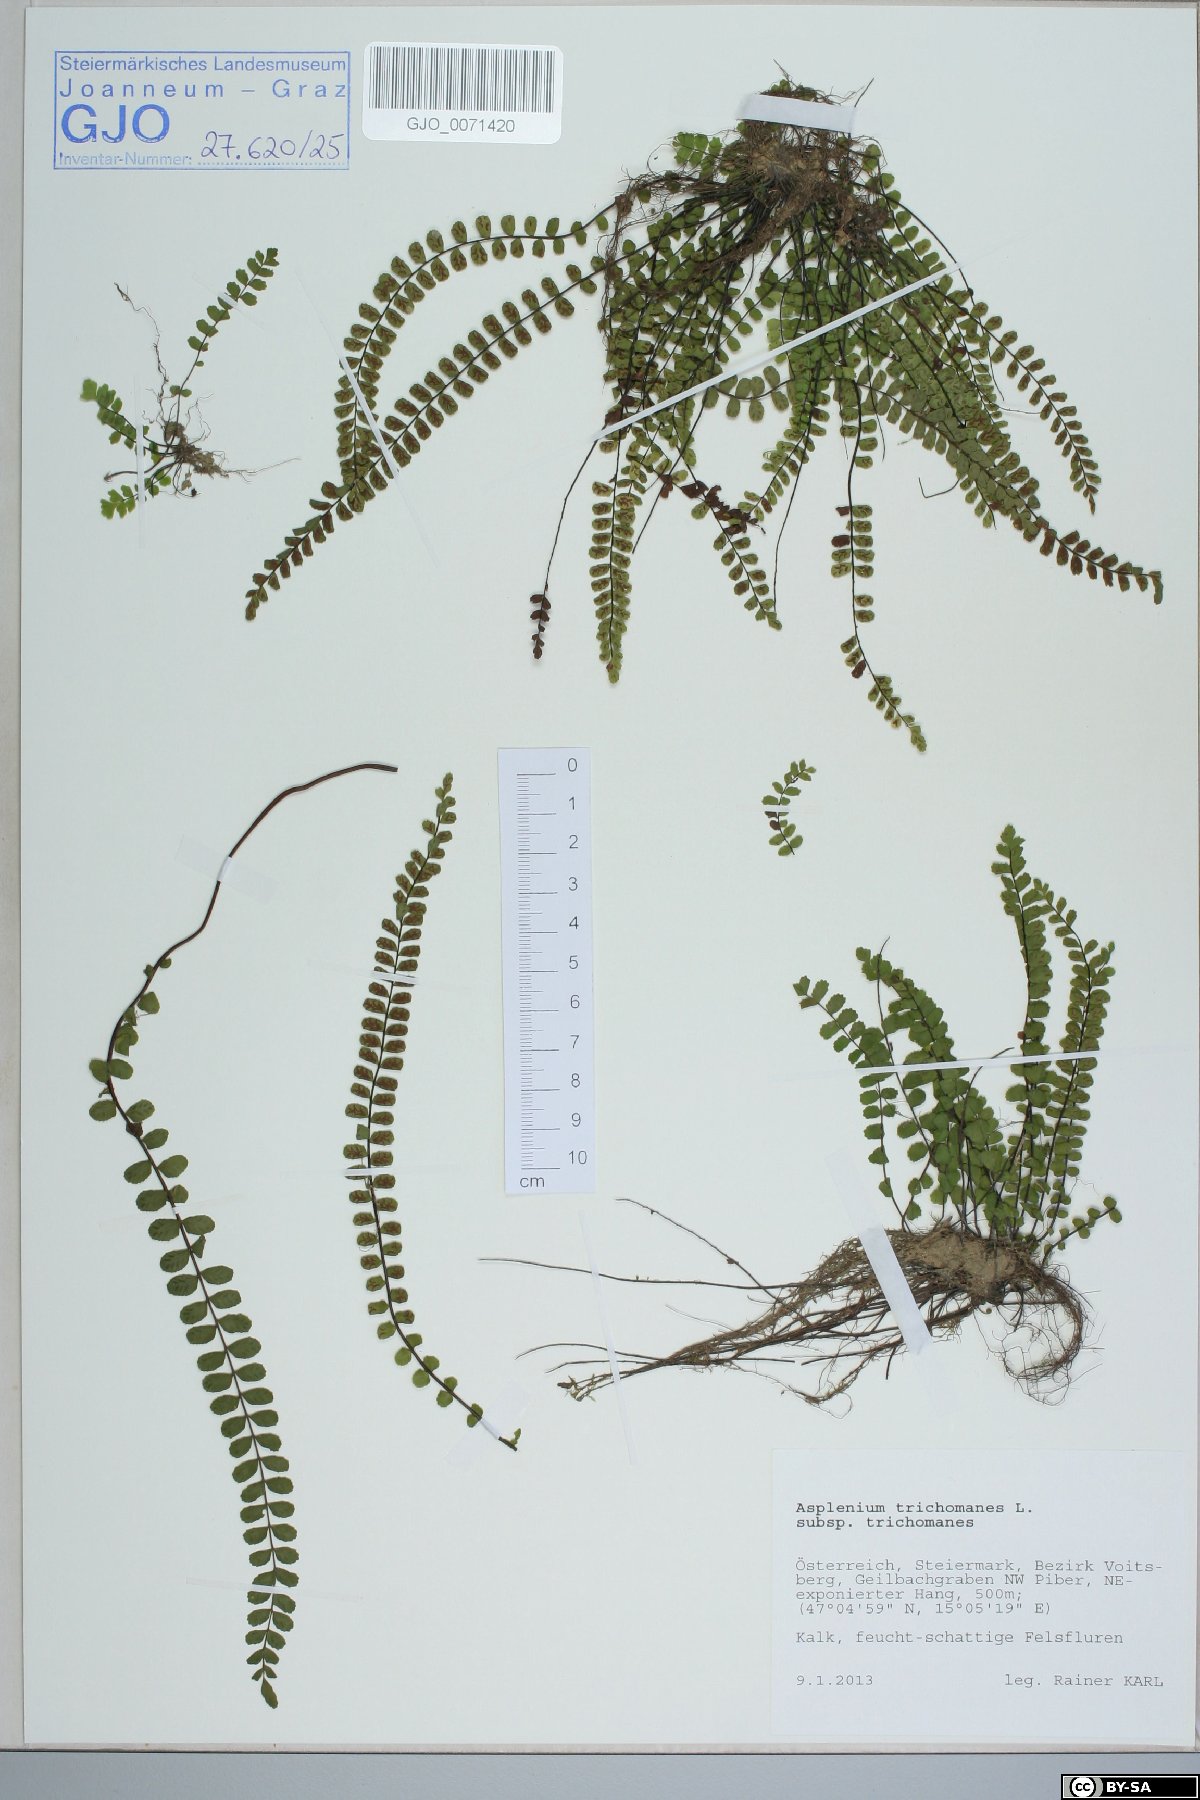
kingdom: Plantae
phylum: Tracheophyta
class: Polypodiopsida
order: Polypodiales
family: Aspleniaceae
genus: Asplenium
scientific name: Asplenium trichomanes
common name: Maidenhair spleenwort
